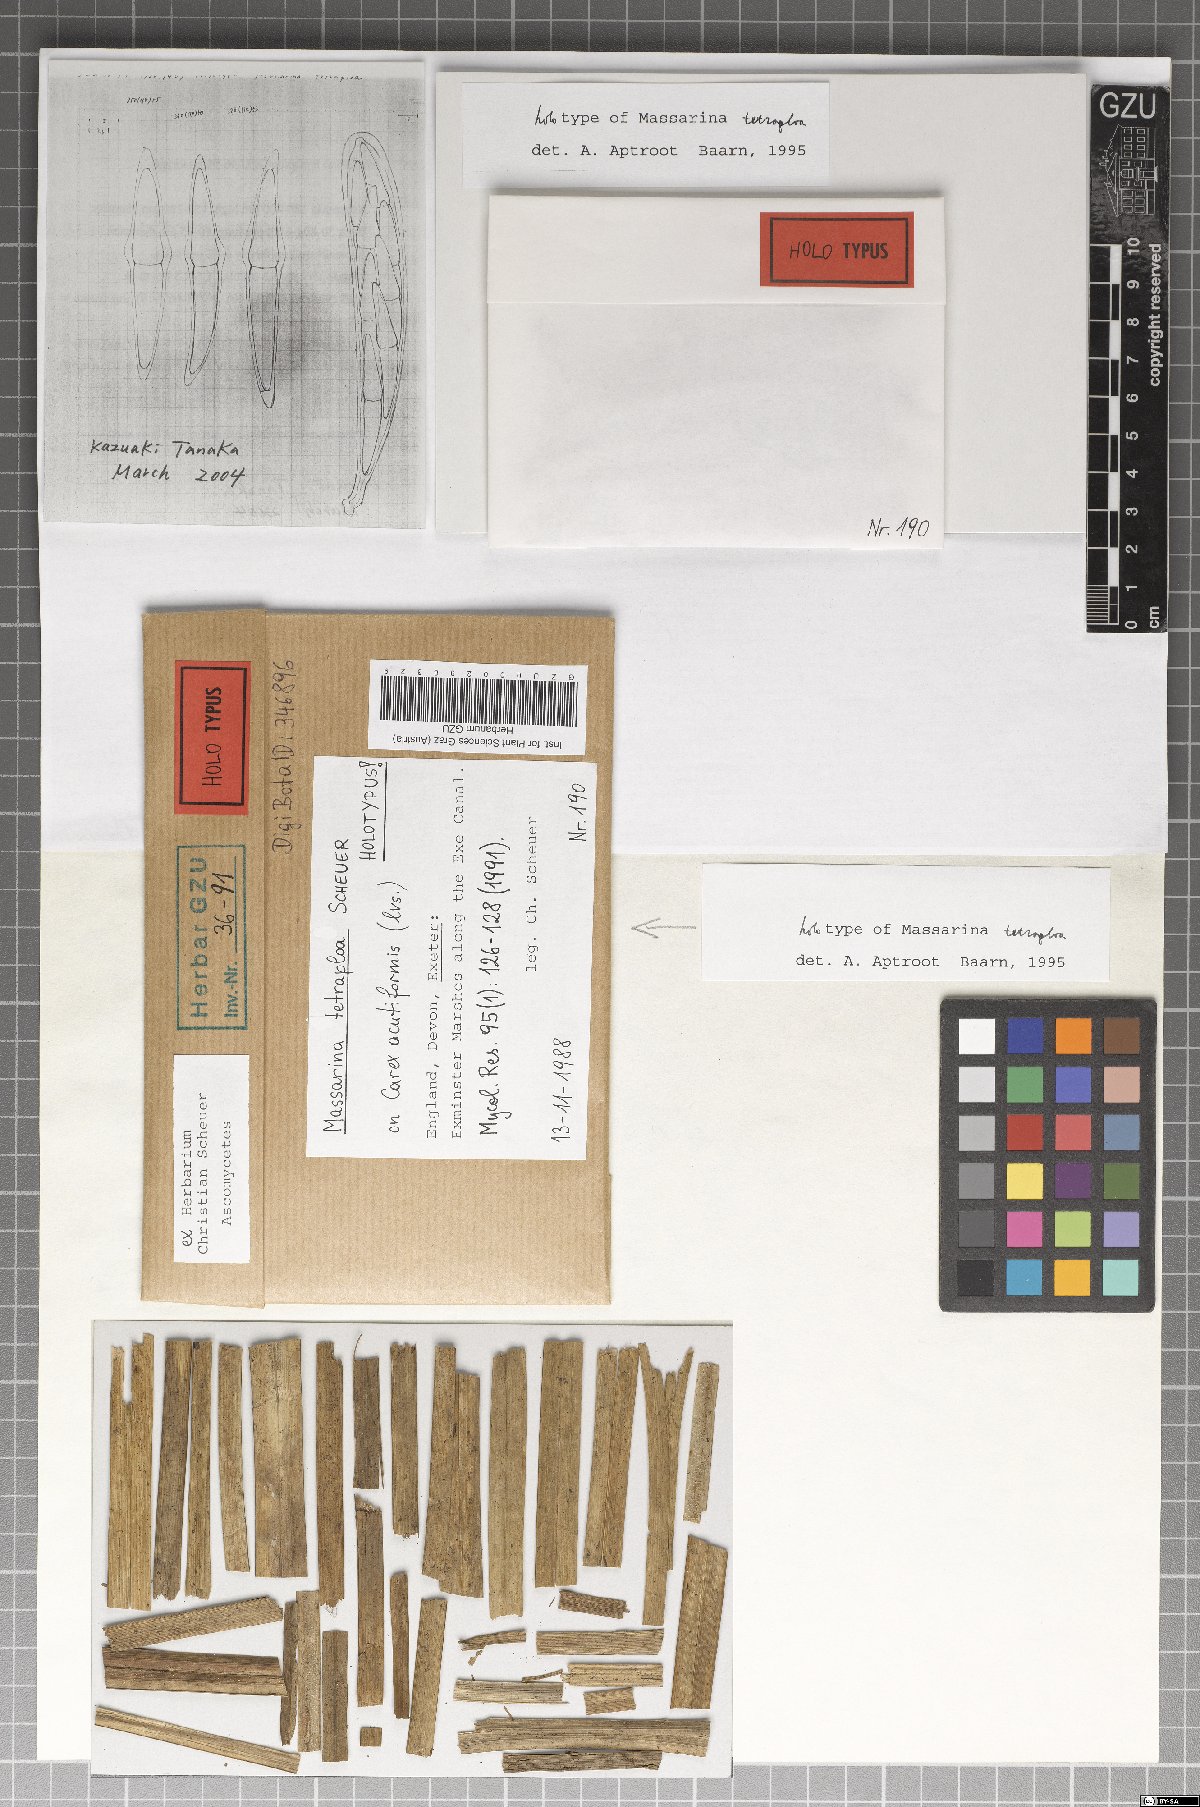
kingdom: Fungi
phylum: Ascomycota
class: Dothideomycetes
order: Pleosporales
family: Tetraplosphaeriaceae
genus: Tetraploa
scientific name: Tetraploa scheueri
